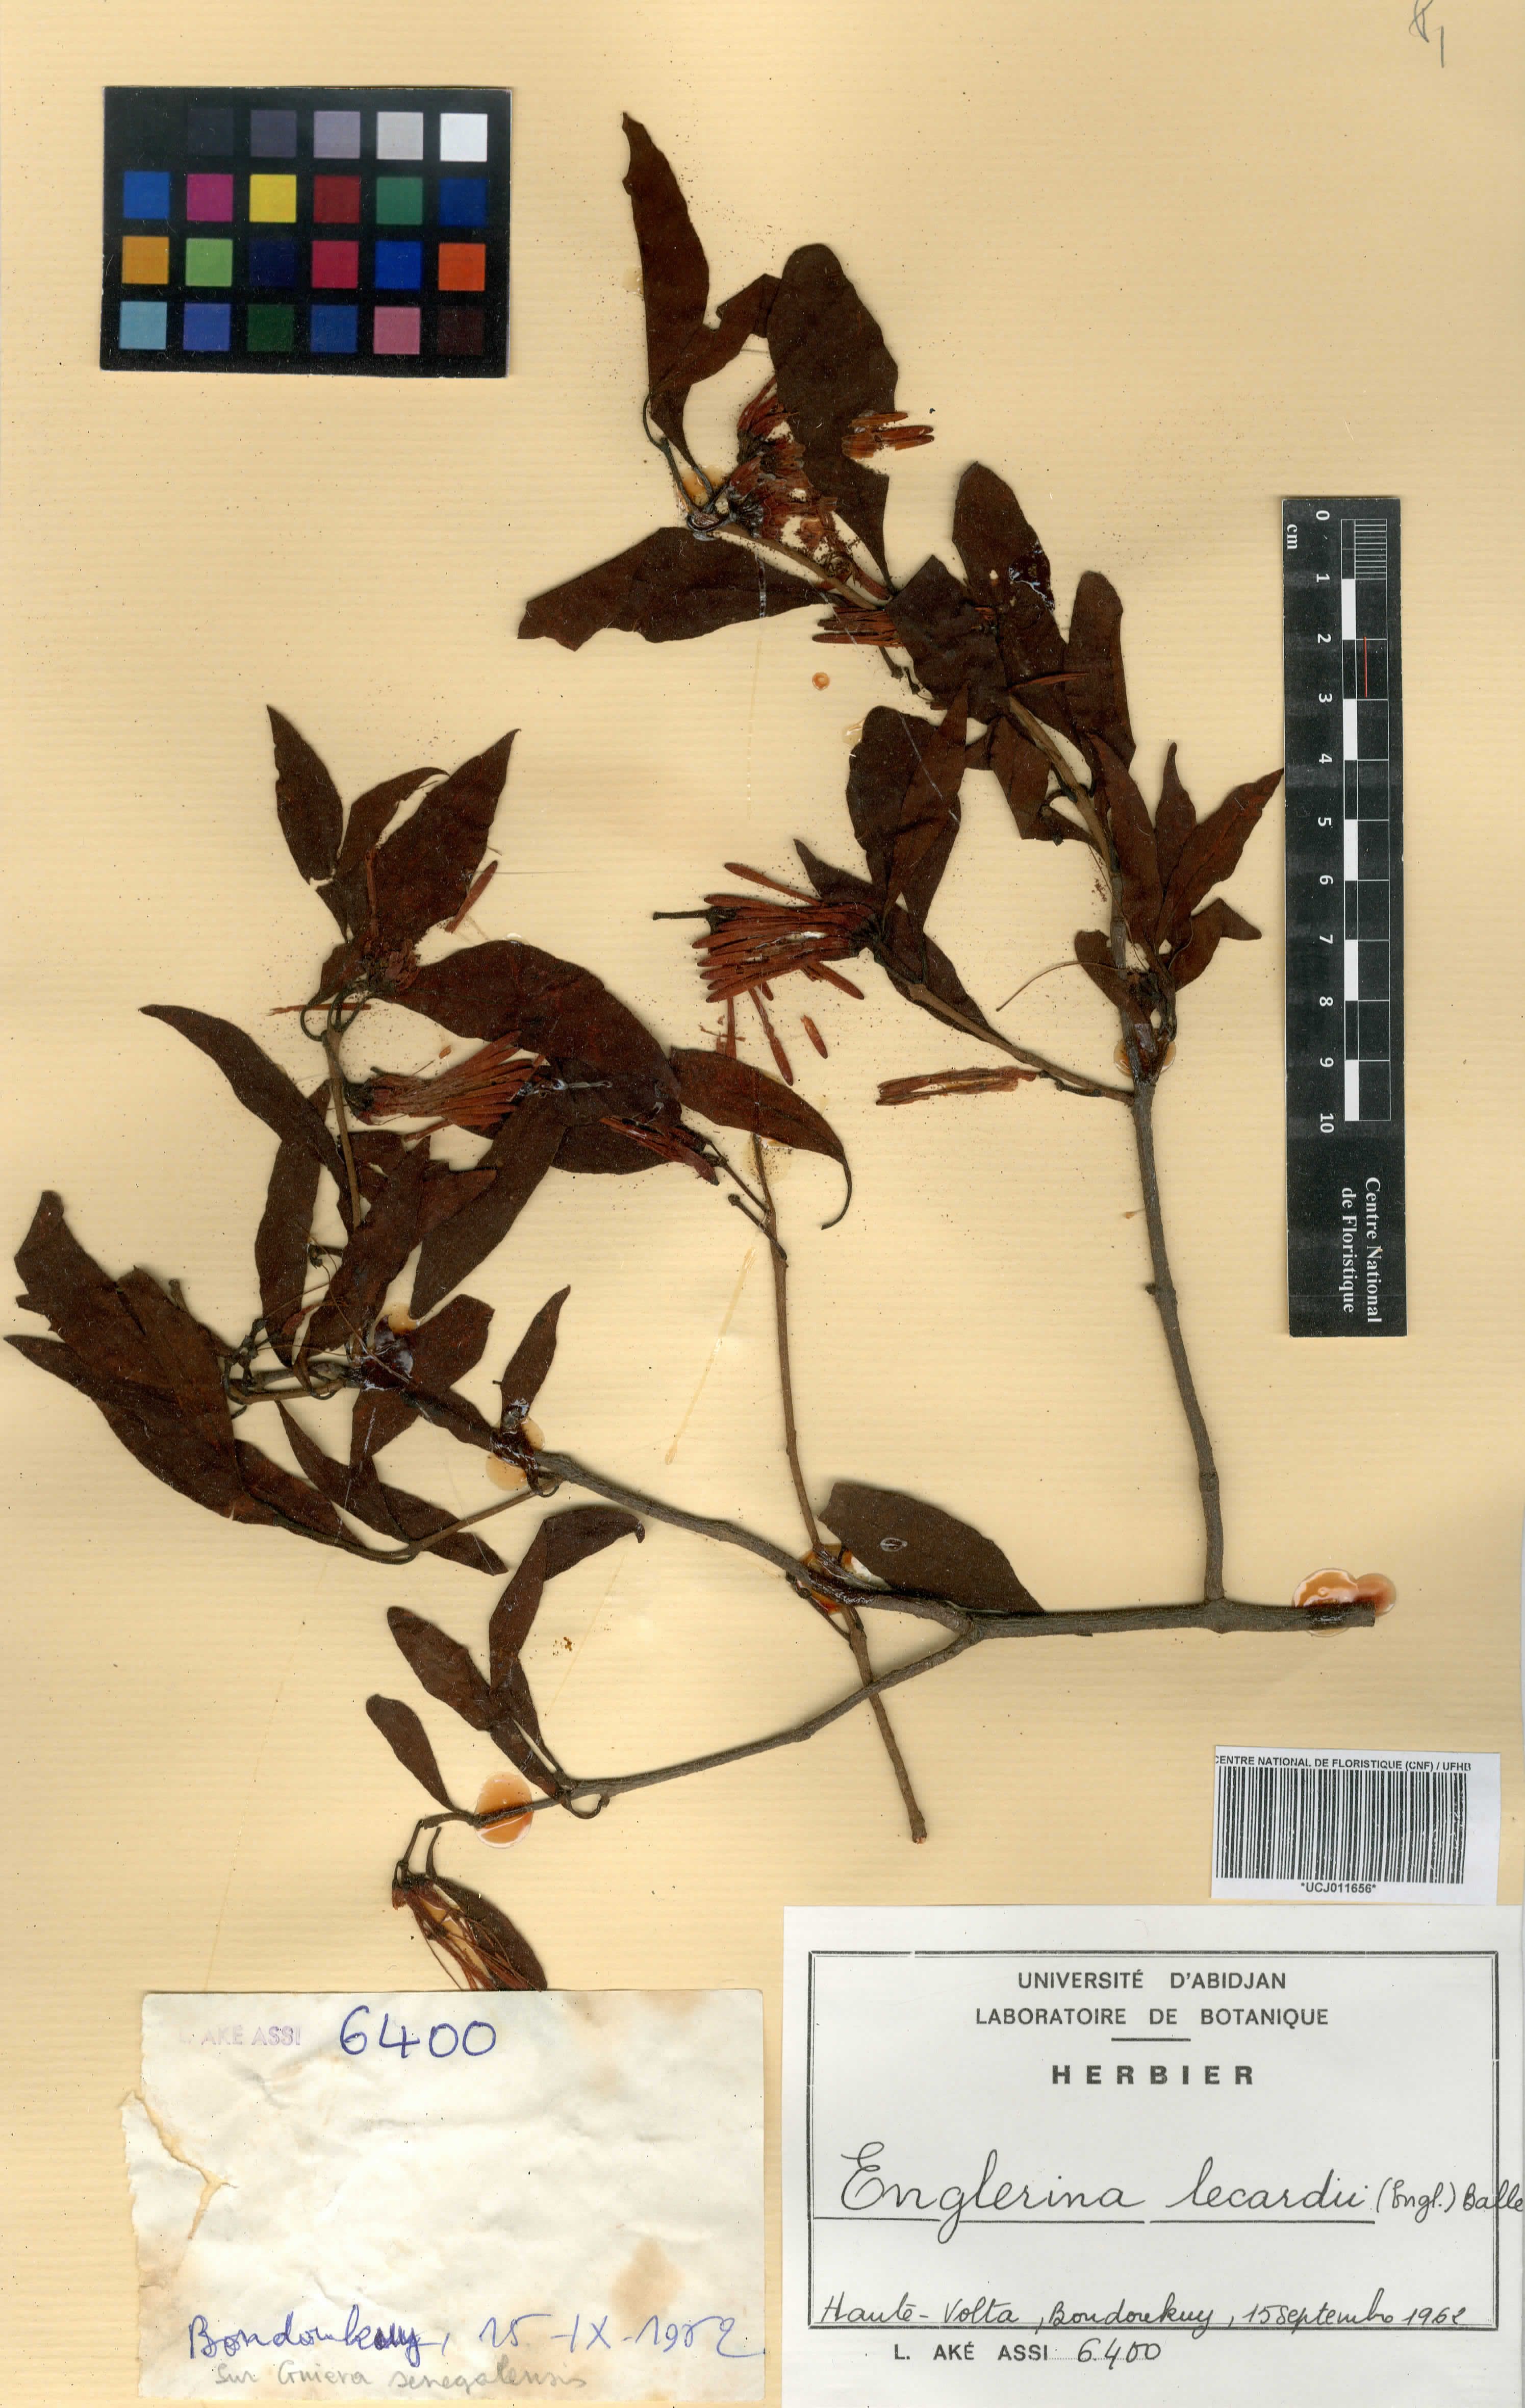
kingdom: Plantae
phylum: Tracheophyta
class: Magnoliopsida
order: Santalales
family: Loranthaceae
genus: Englerina
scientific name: Englerina lecardii
